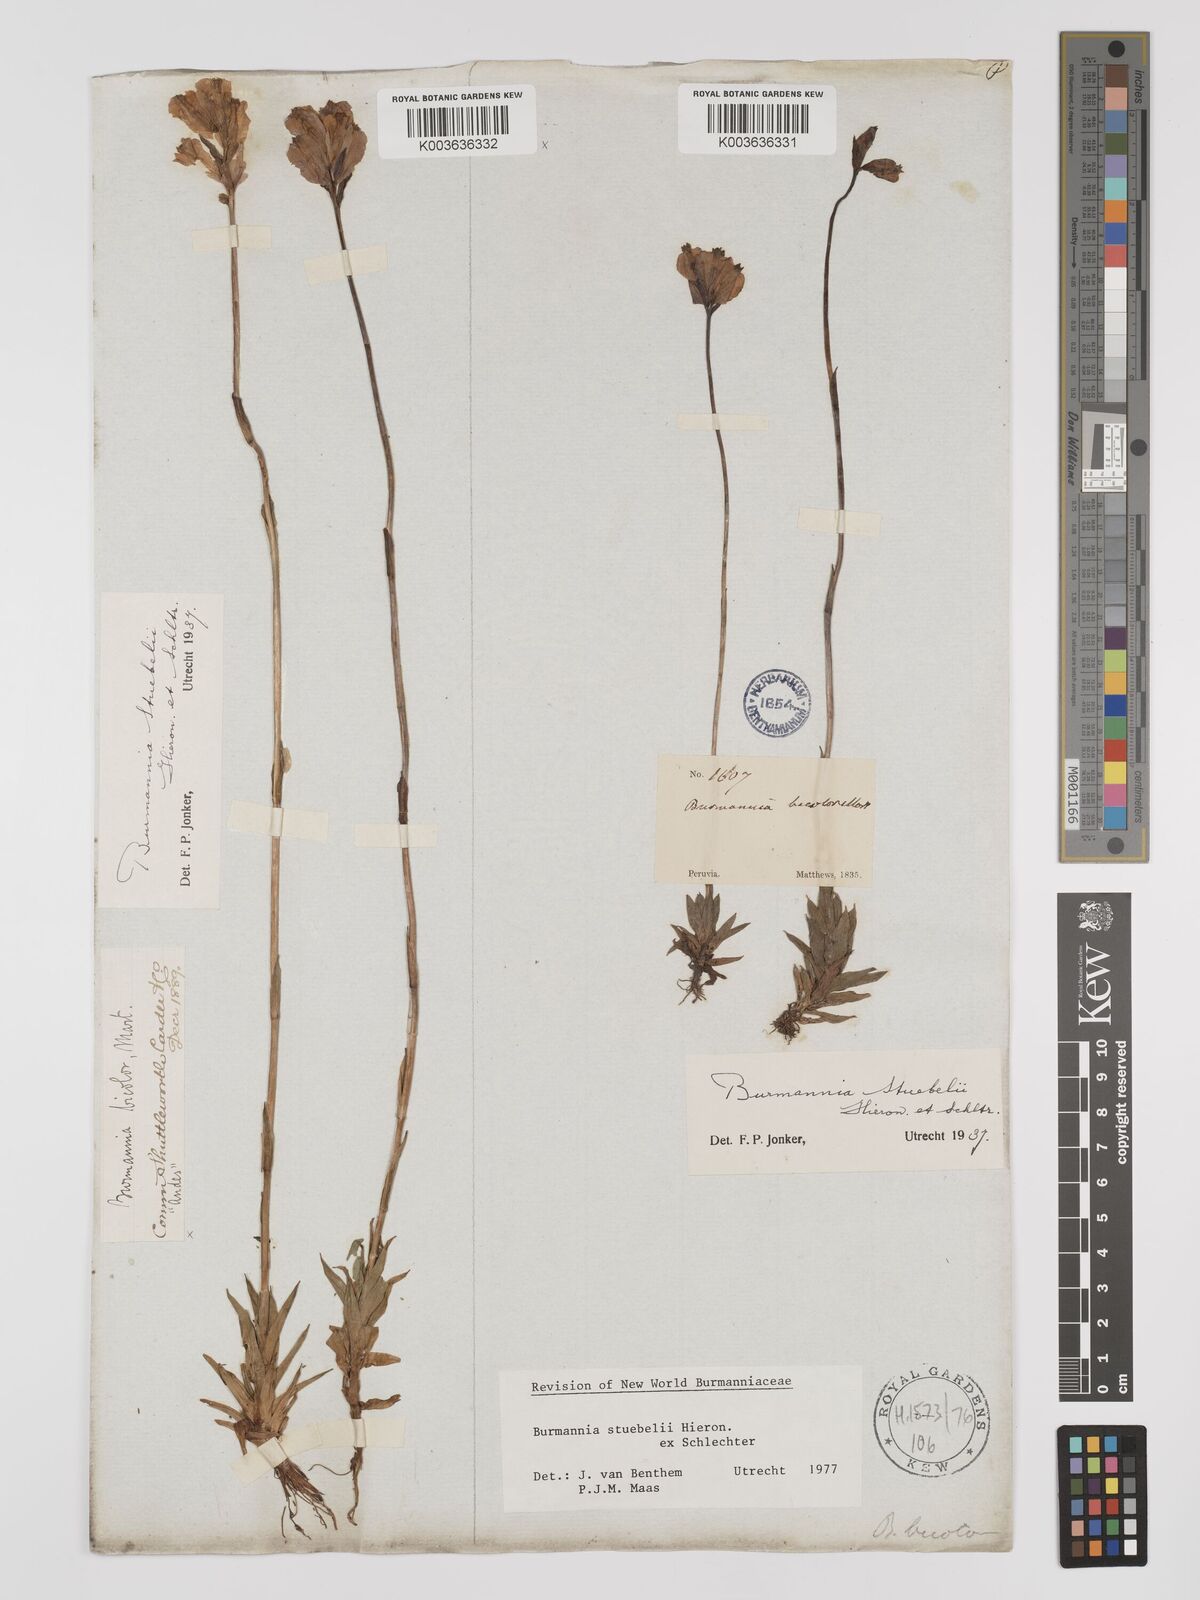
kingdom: Plantae
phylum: Tracheophyta
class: Liliopsida
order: Dioscoreales
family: Burmanniaceae
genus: Burmannia
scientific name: Burmannia stuebelii
